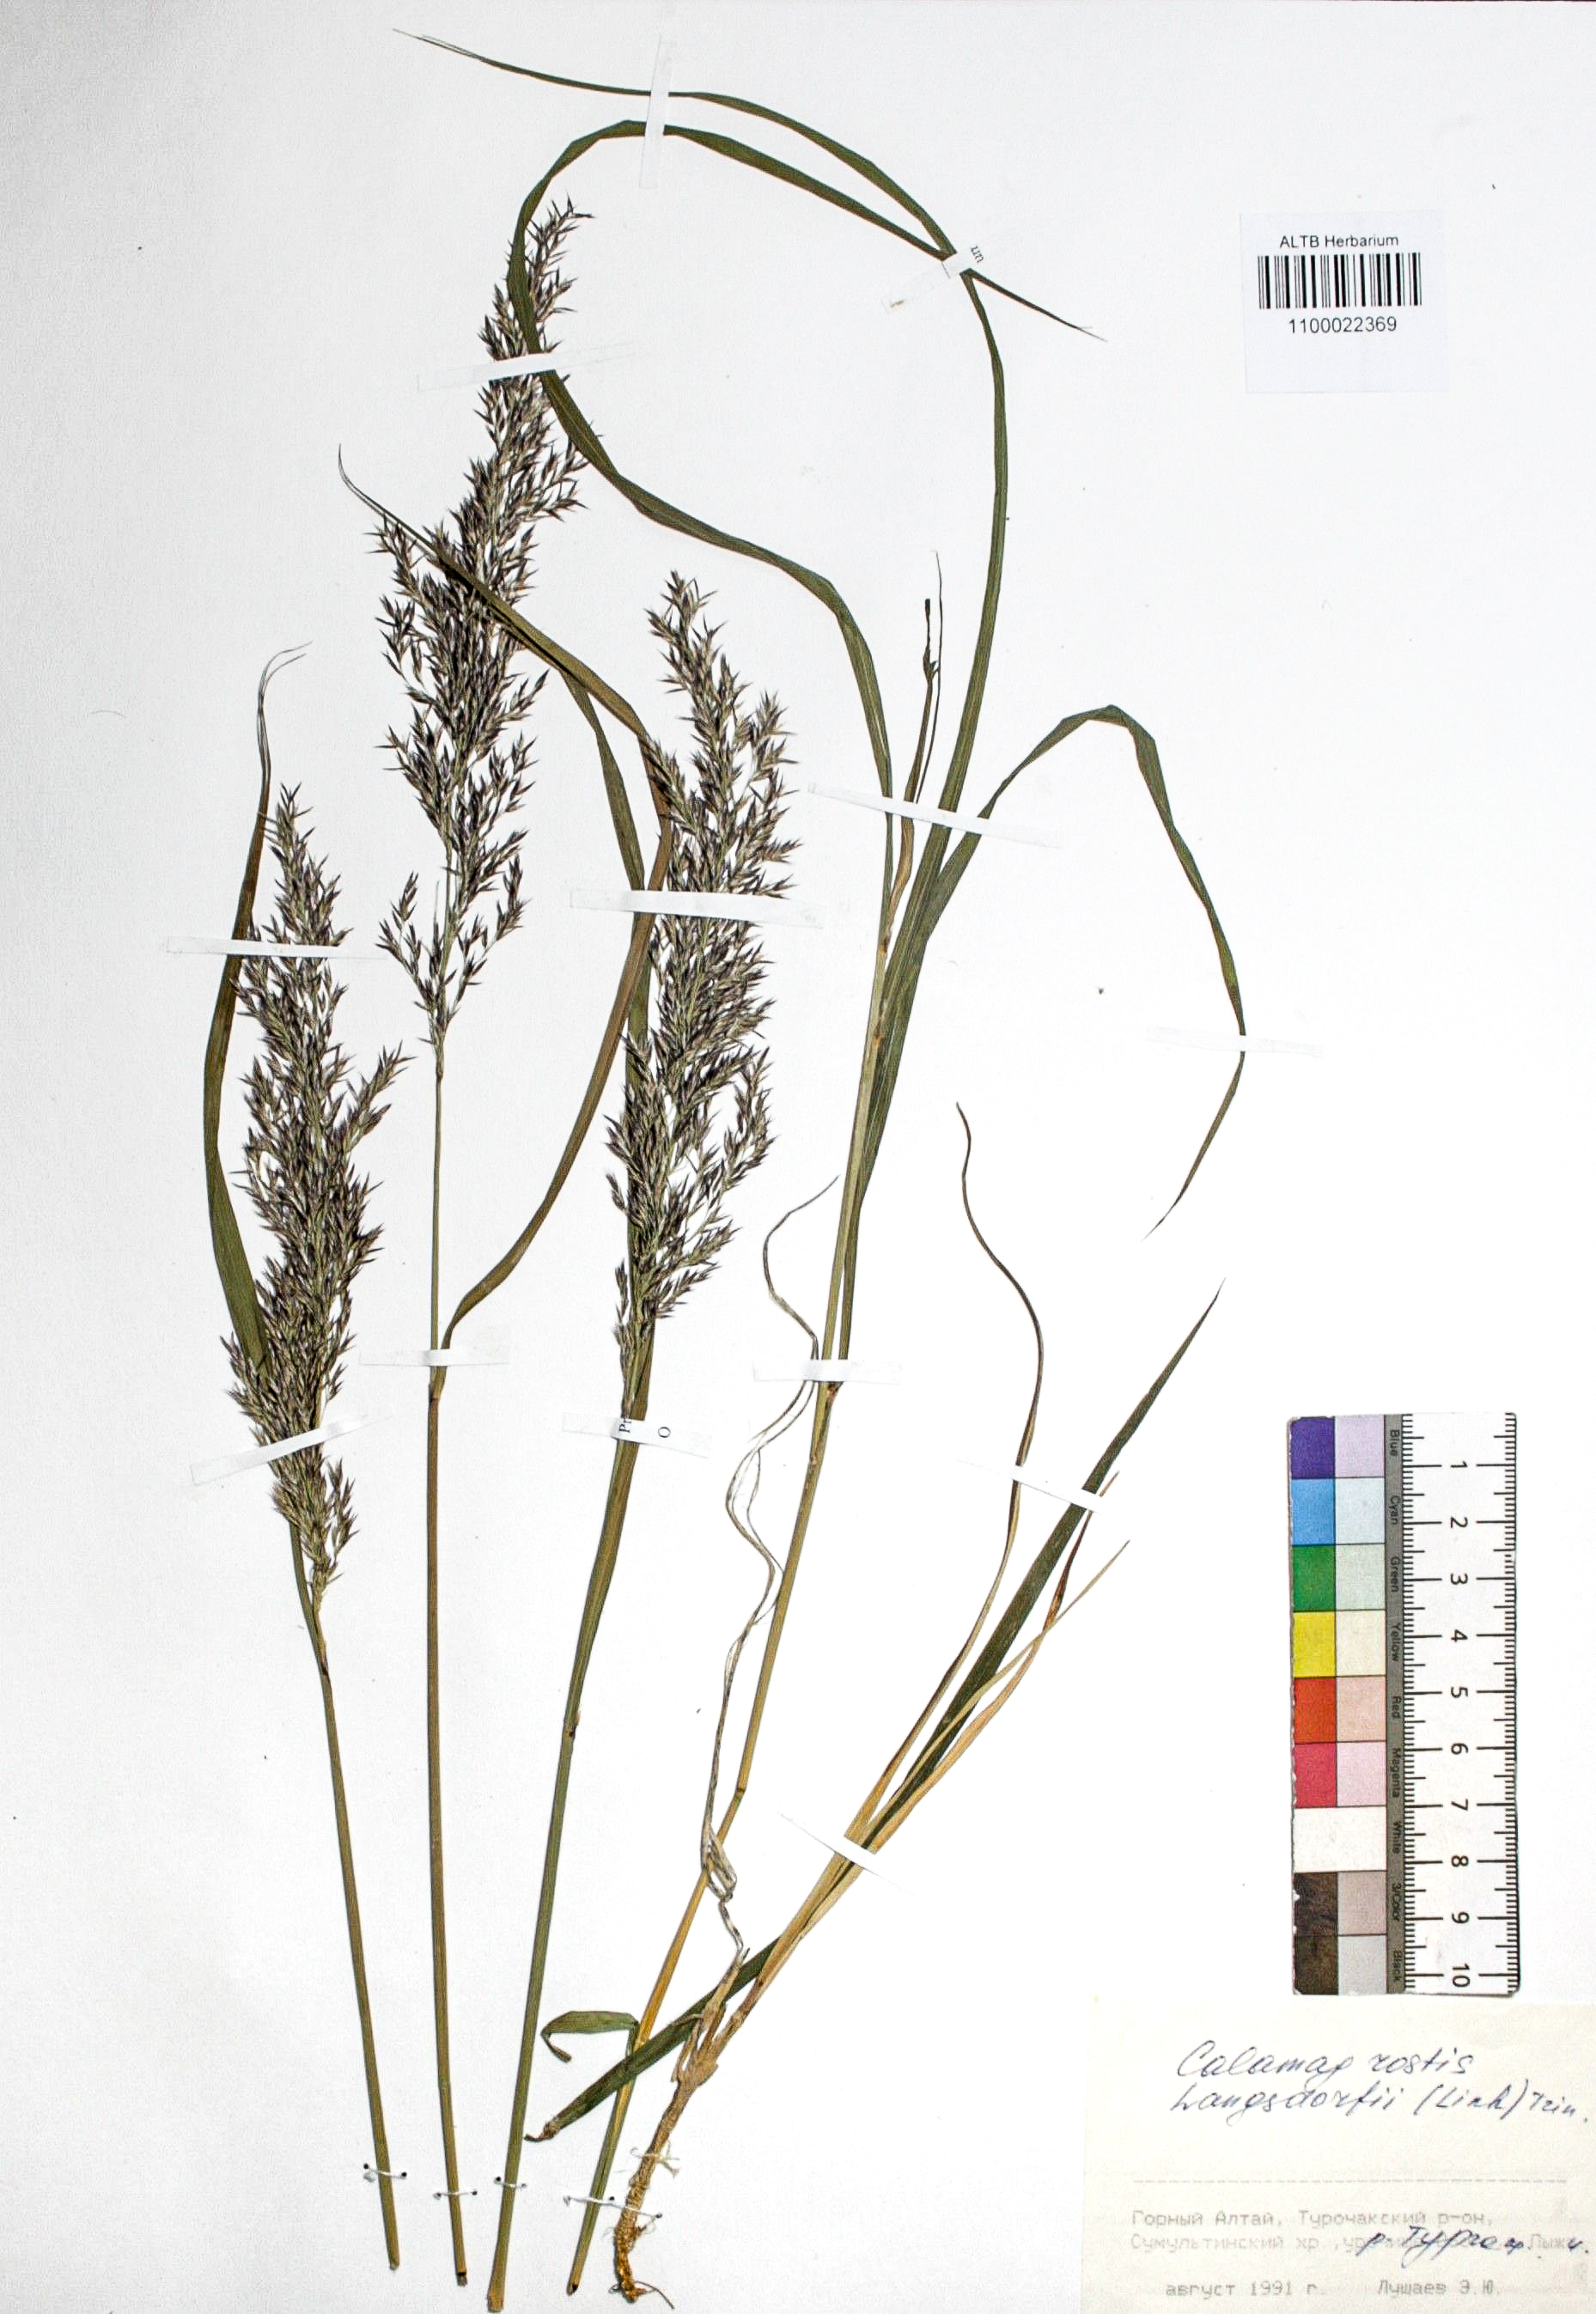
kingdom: Plantae
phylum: Tracheophyta
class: Liliopsida
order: Poales
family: Poaceae
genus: Calamagrostis
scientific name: Calamagrostis purpurea
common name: Scandinavian small-reed
